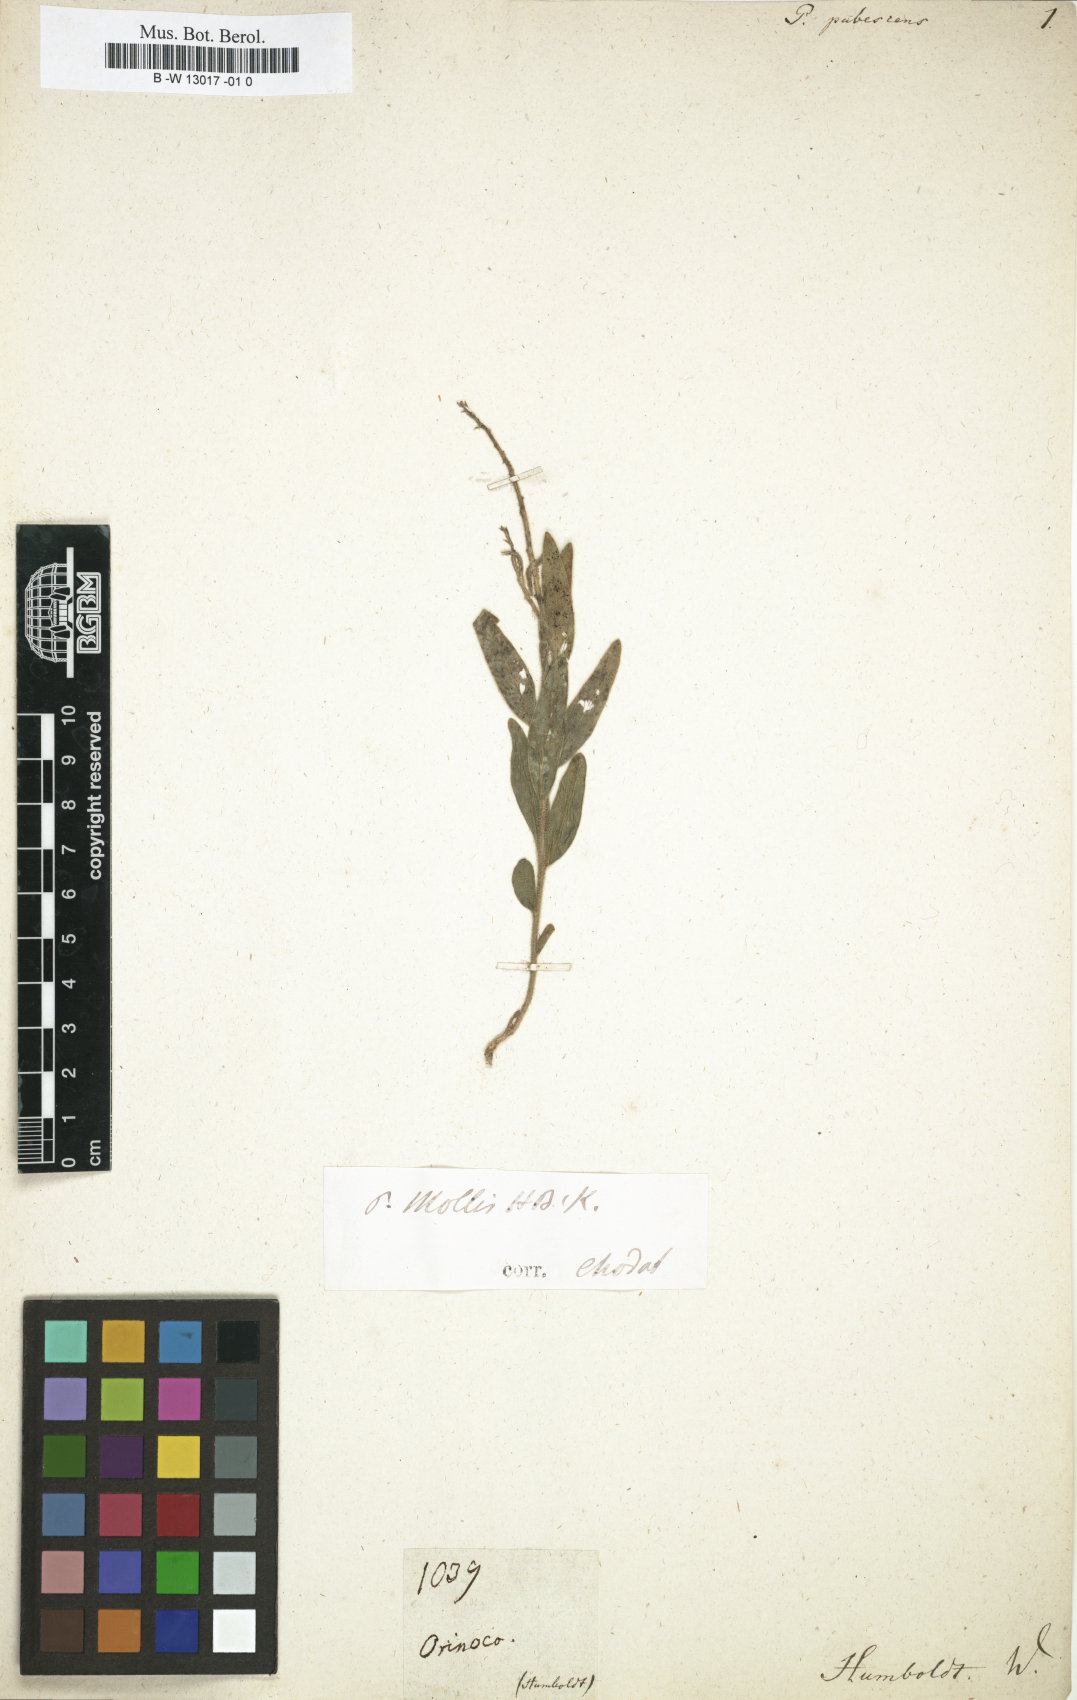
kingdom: Plantae
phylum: Tracheophyta
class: Magnoliopsida
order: Fabales
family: Polygalaceae
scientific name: Polygalaceae
